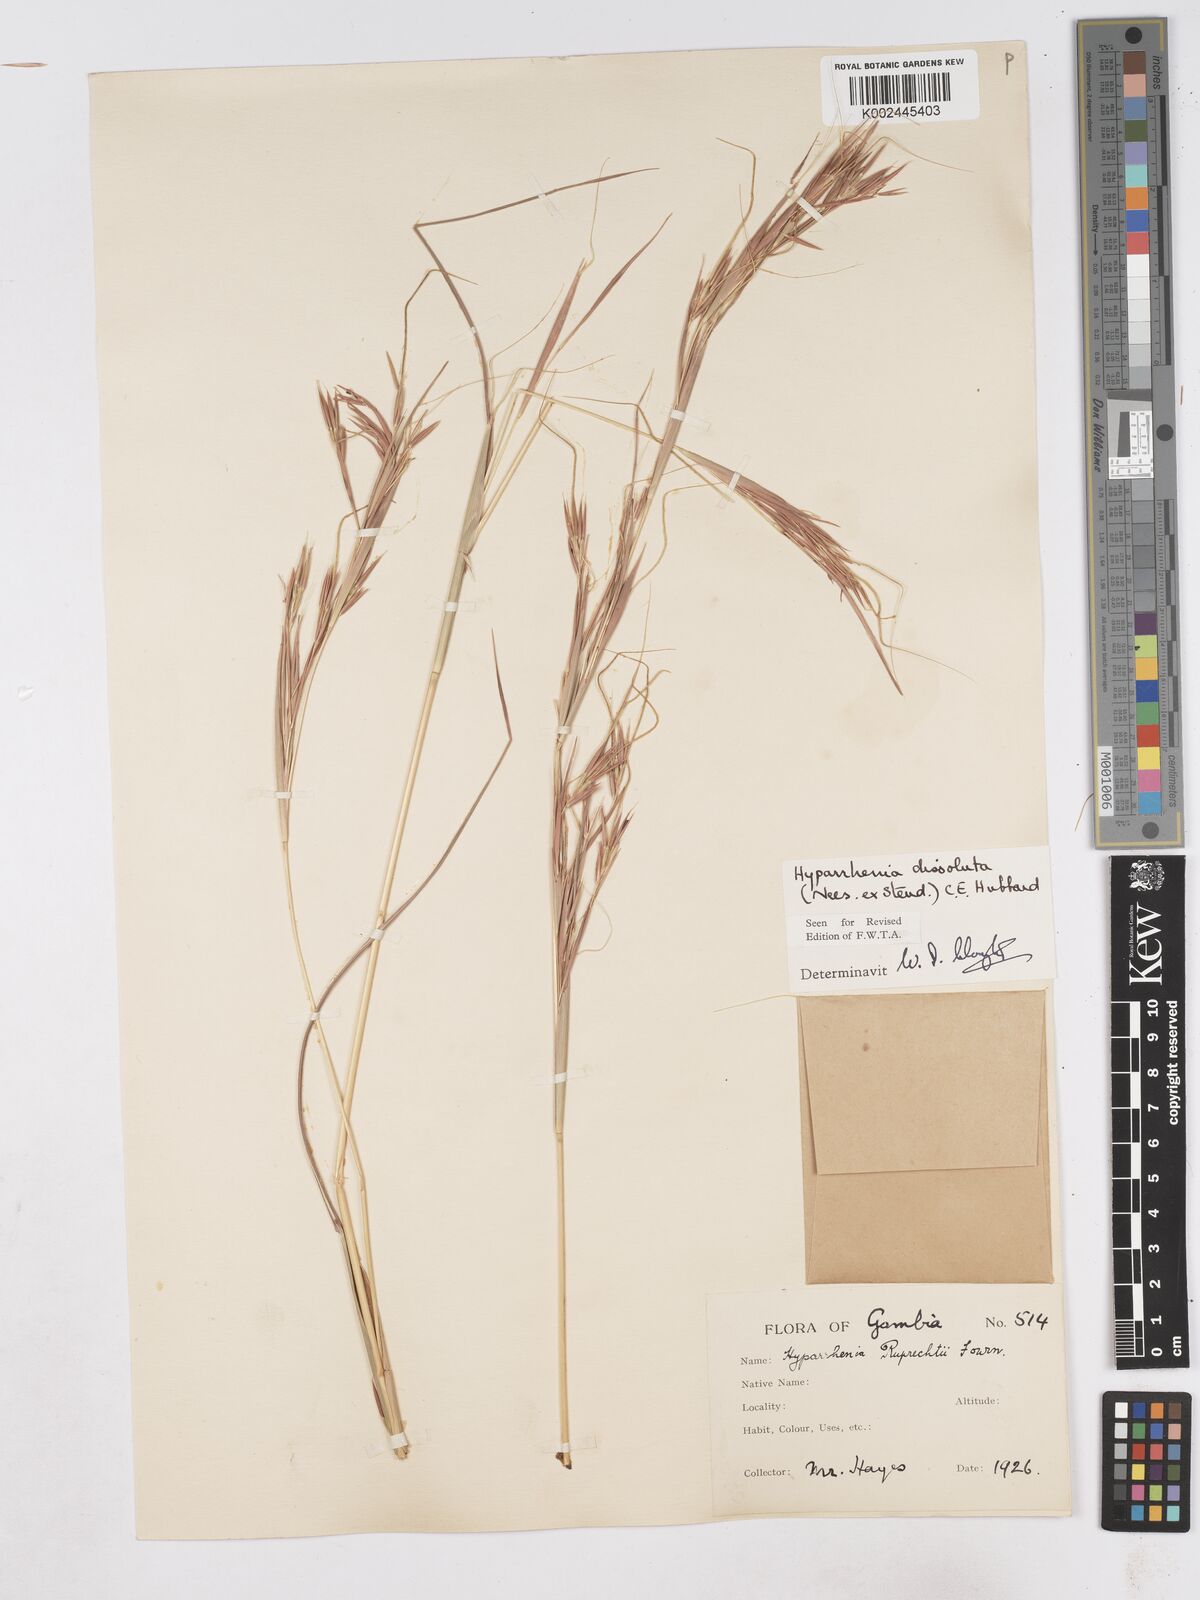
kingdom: Plantae
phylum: Tracheophyta
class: Liliopsida
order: Poales
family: Poaceae
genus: Hyperthelia
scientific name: Hyperthelia dissoluta
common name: Yellow thatching grass
